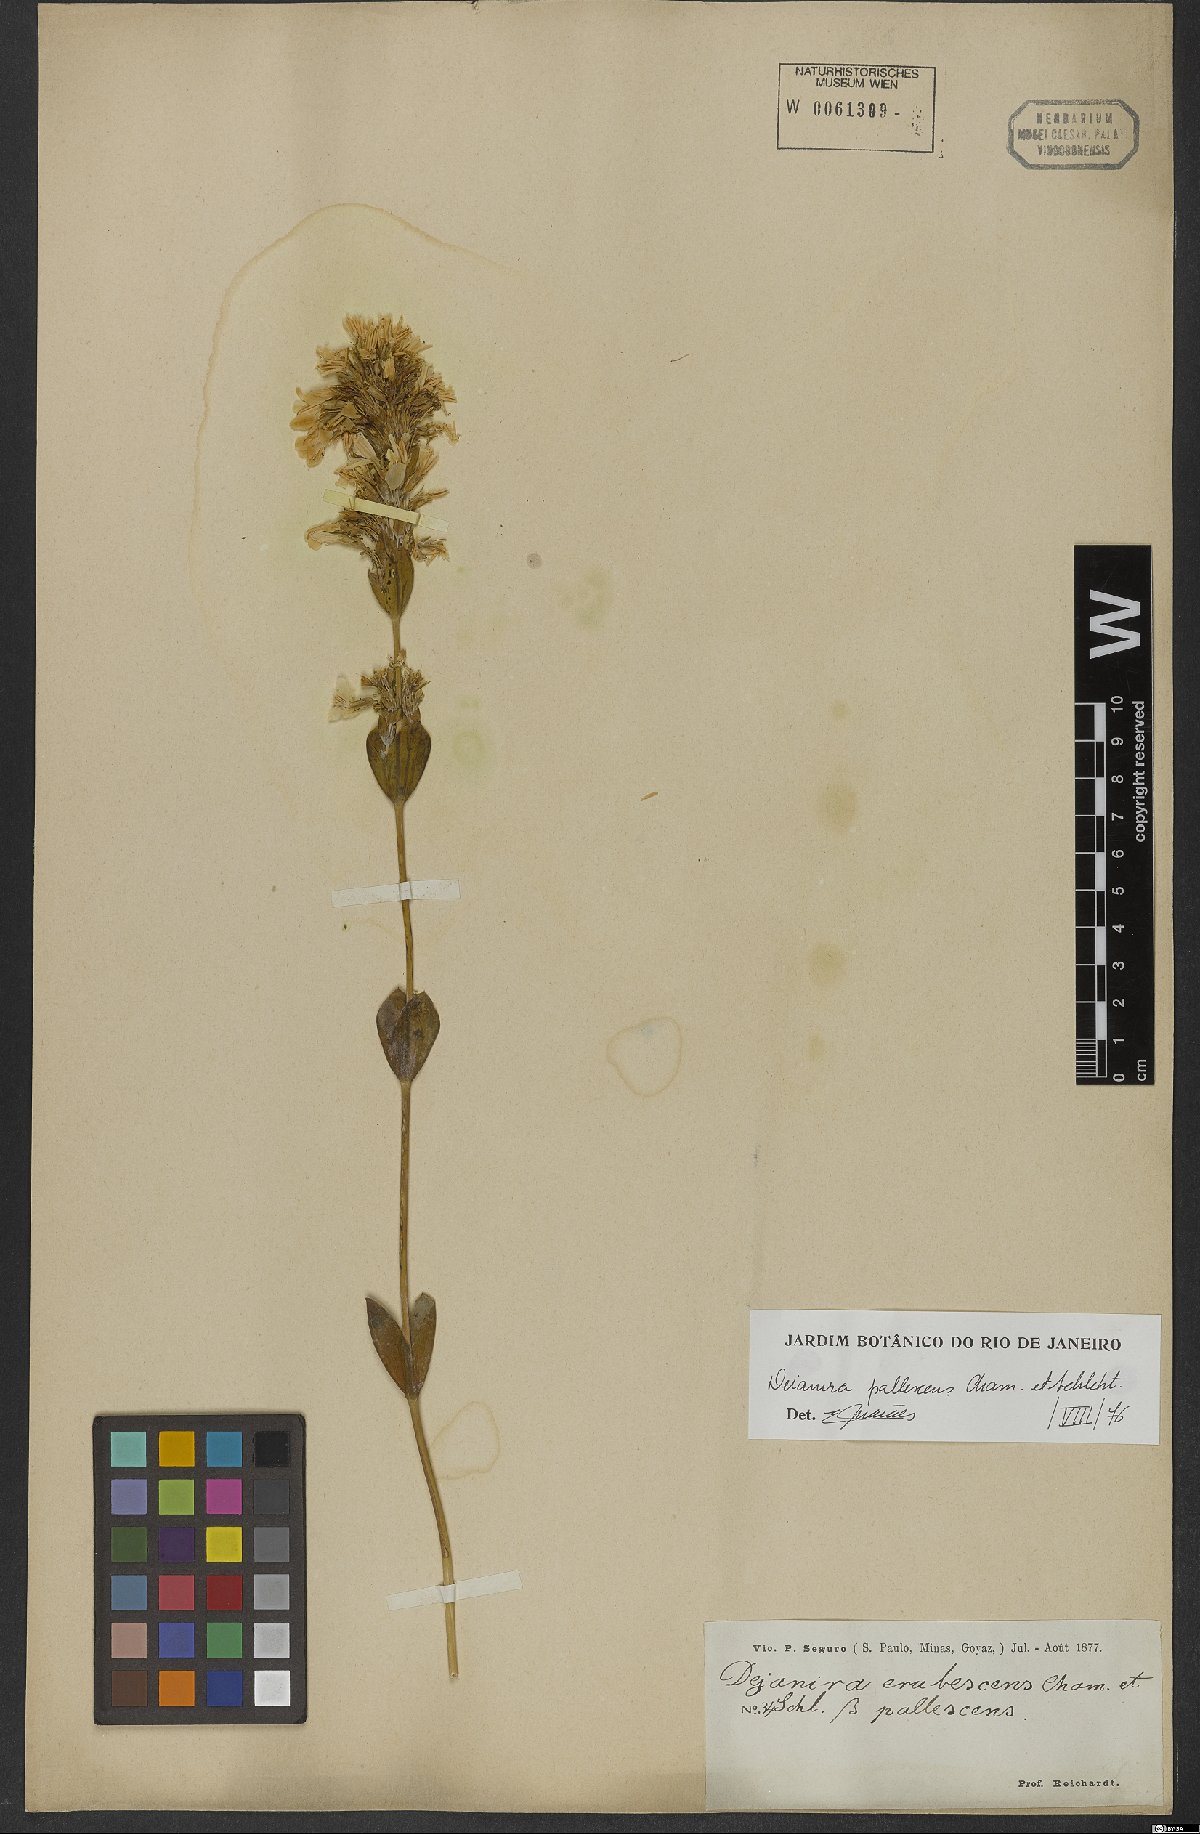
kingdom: Plantae
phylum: Tracheophyta
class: Magnoliopsida
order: Gentianales
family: Gentianaceae
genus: Deianira
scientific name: Deianira pallescens
